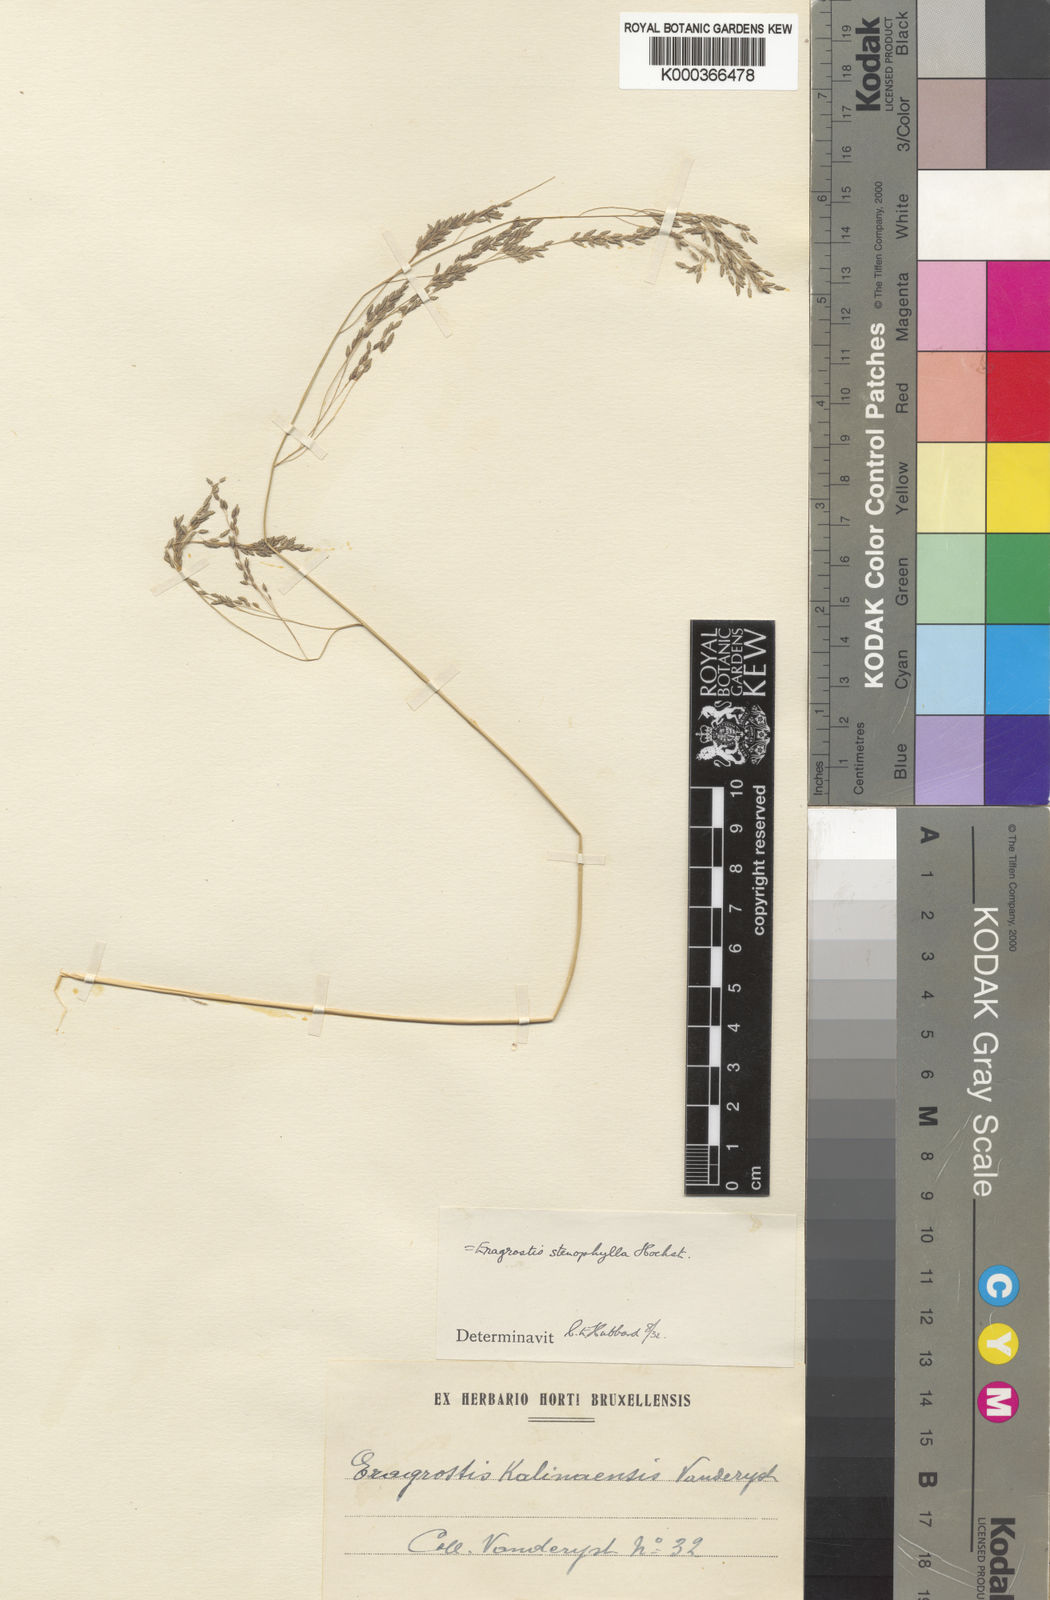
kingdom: Plantae
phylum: Tracheophyta
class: Liliopsida
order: Poales
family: Poaceae
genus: Eragrostis
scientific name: Eragrostis gangetica
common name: Slimflower lovegrass
